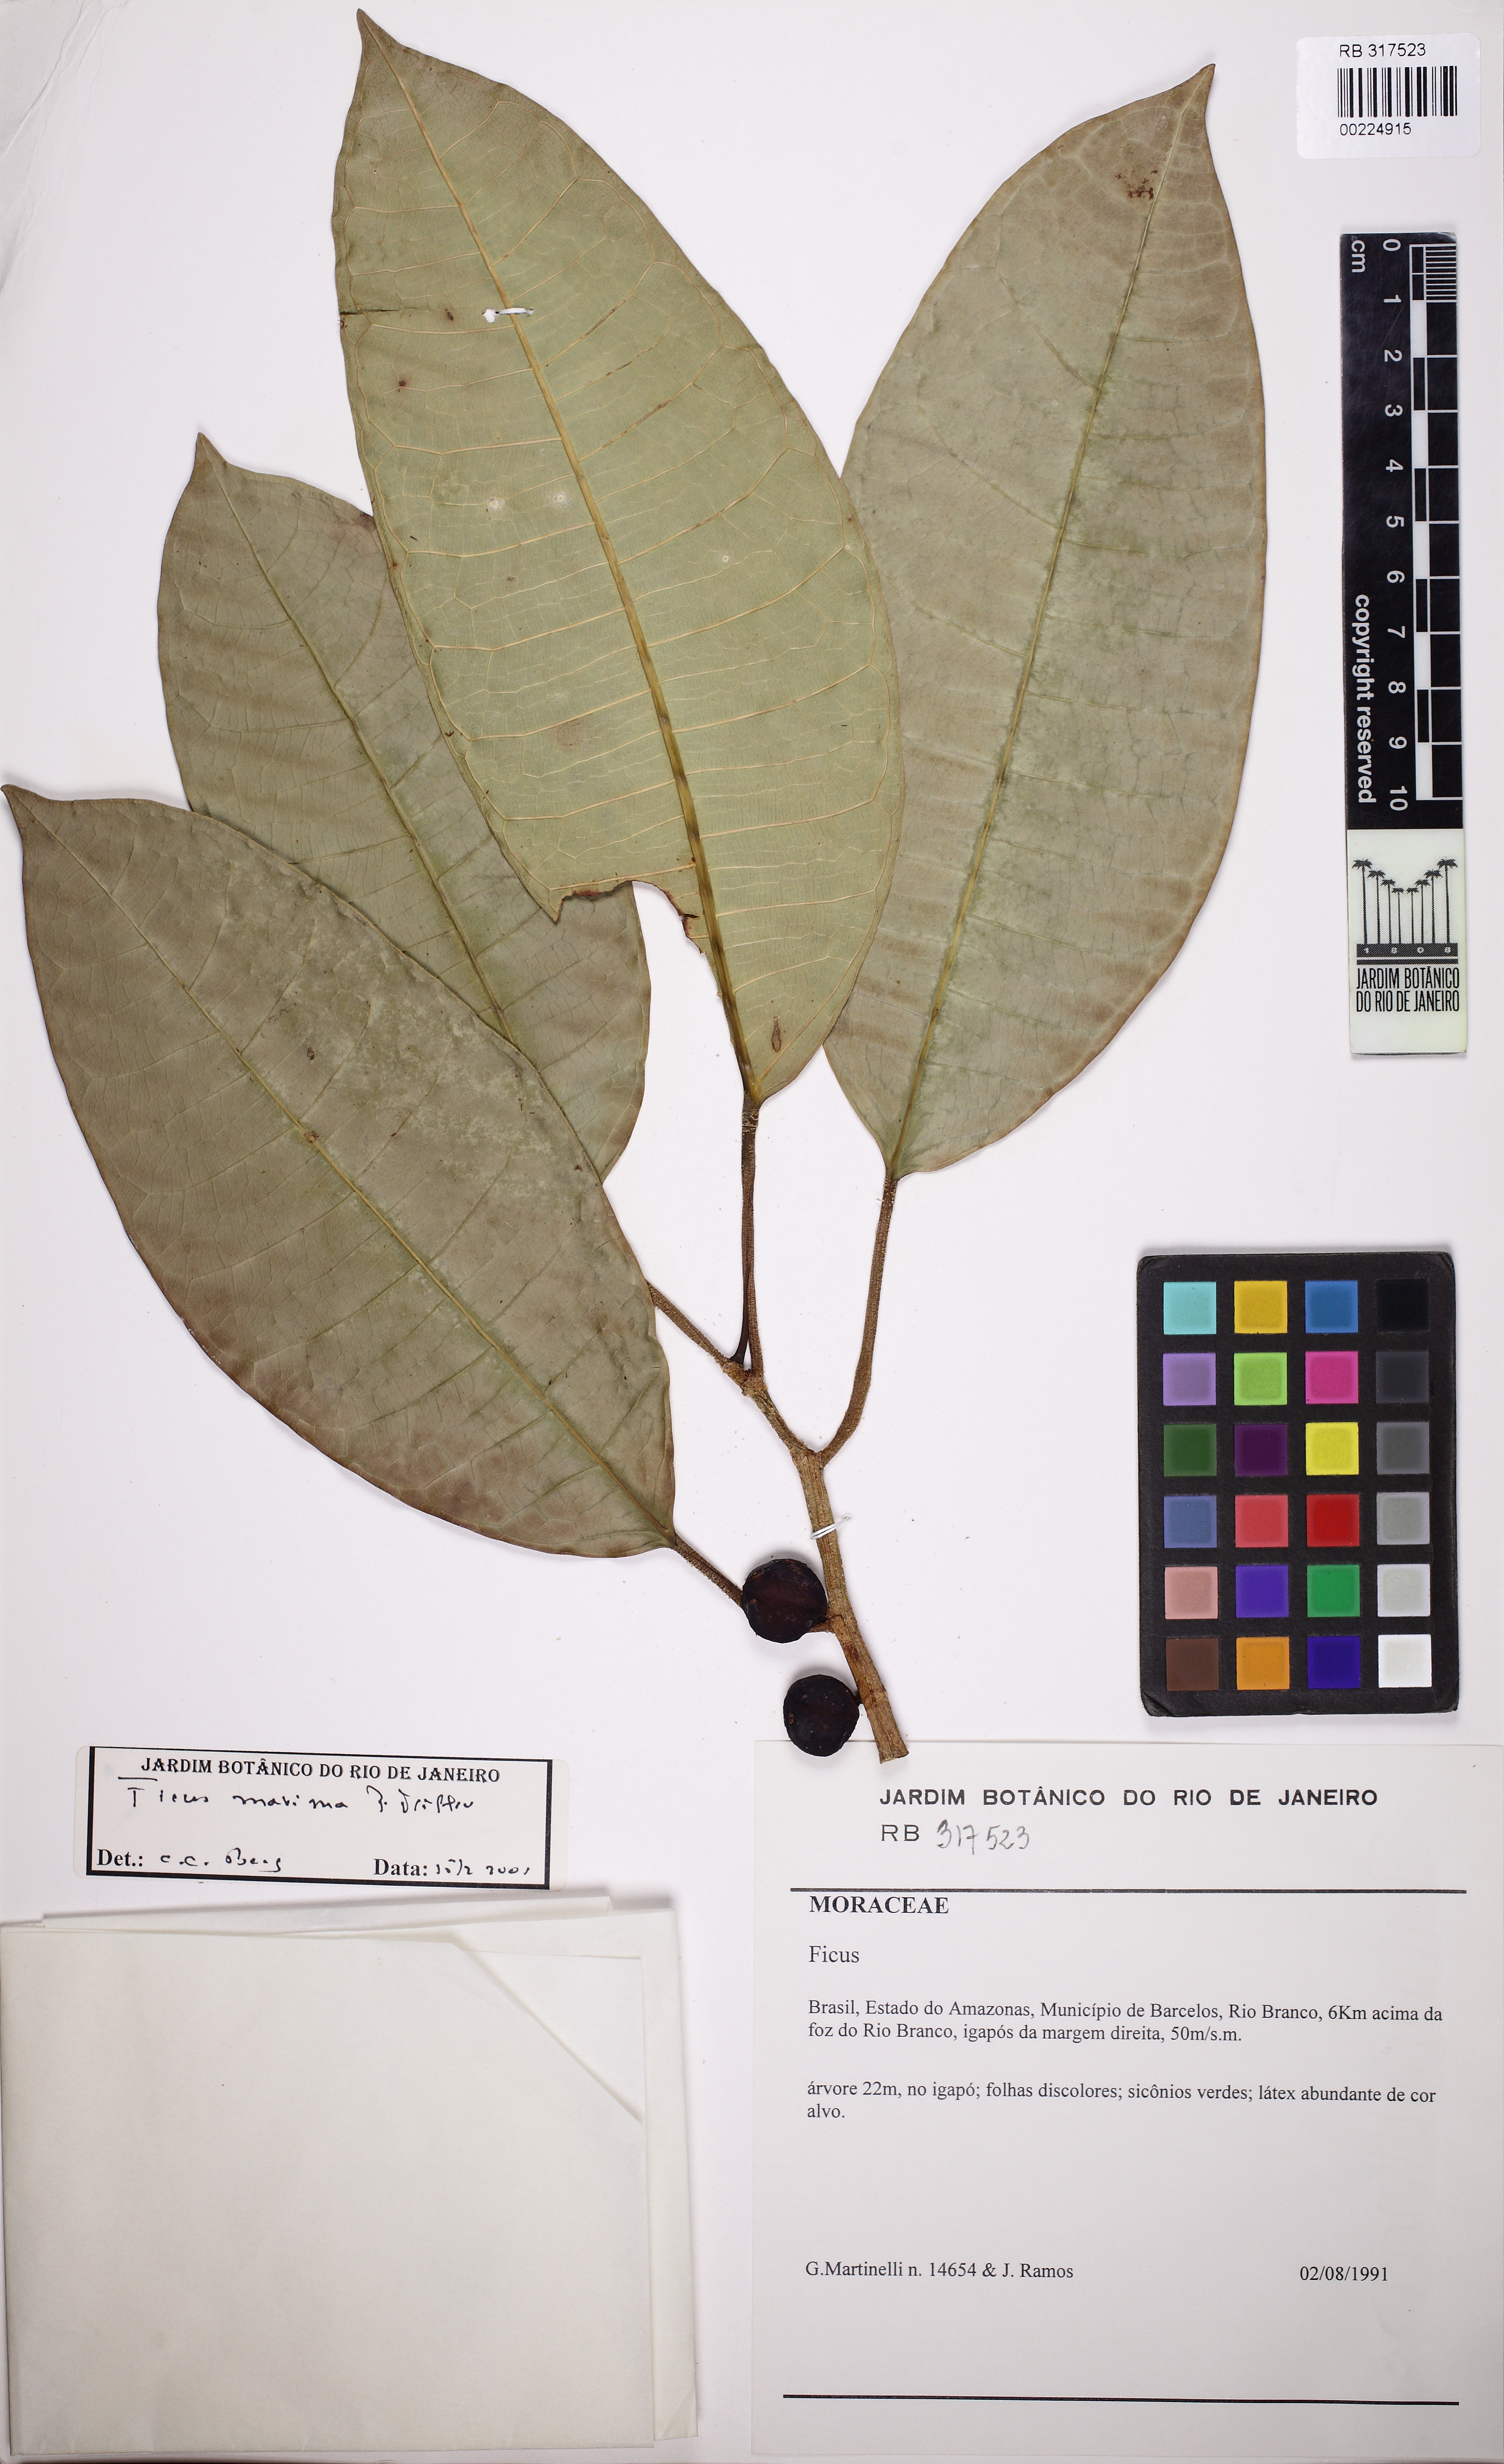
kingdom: Plantae
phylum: Tracheophyta
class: Magnoliopsida
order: Rosales
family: Moraceae
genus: Ficus
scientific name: Ficus maxima
